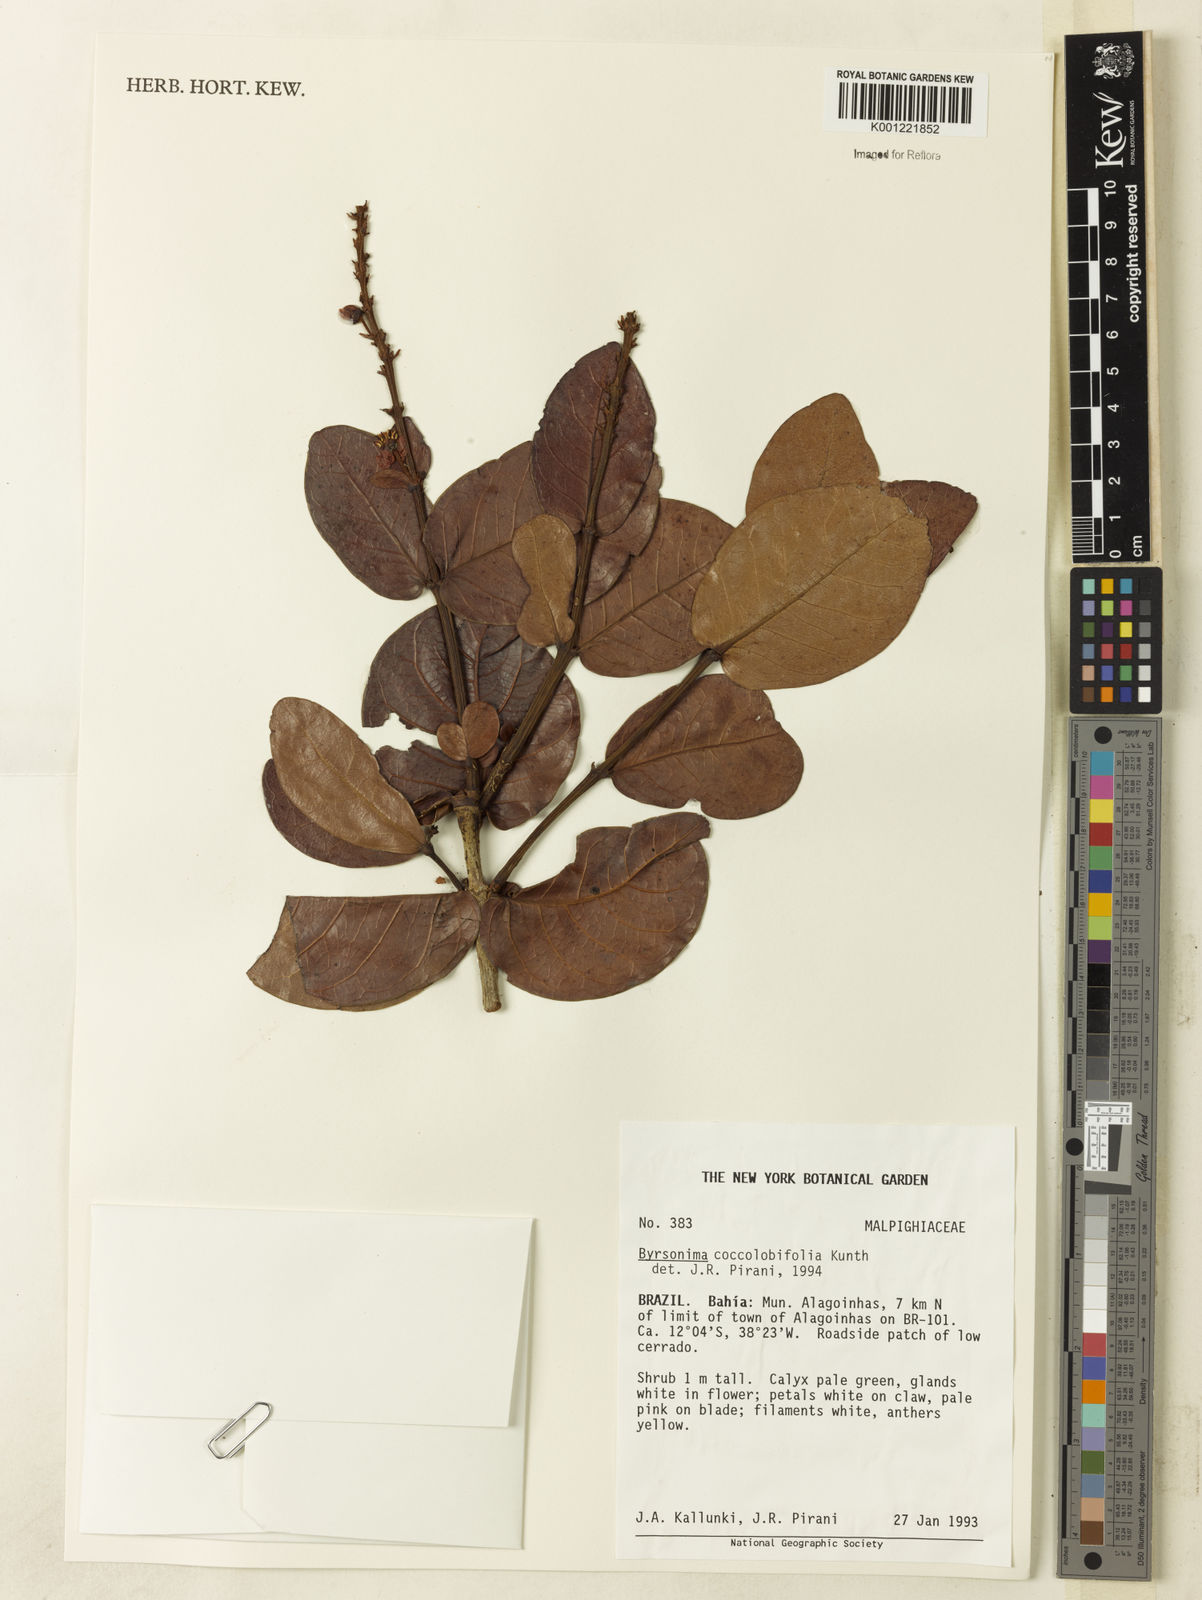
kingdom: Plantae
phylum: Tracheophyta
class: Magnoliopsida
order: Malpighiales
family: Malpighiaceae
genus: Byrsonima
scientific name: Byrsonima coccolobifolia
